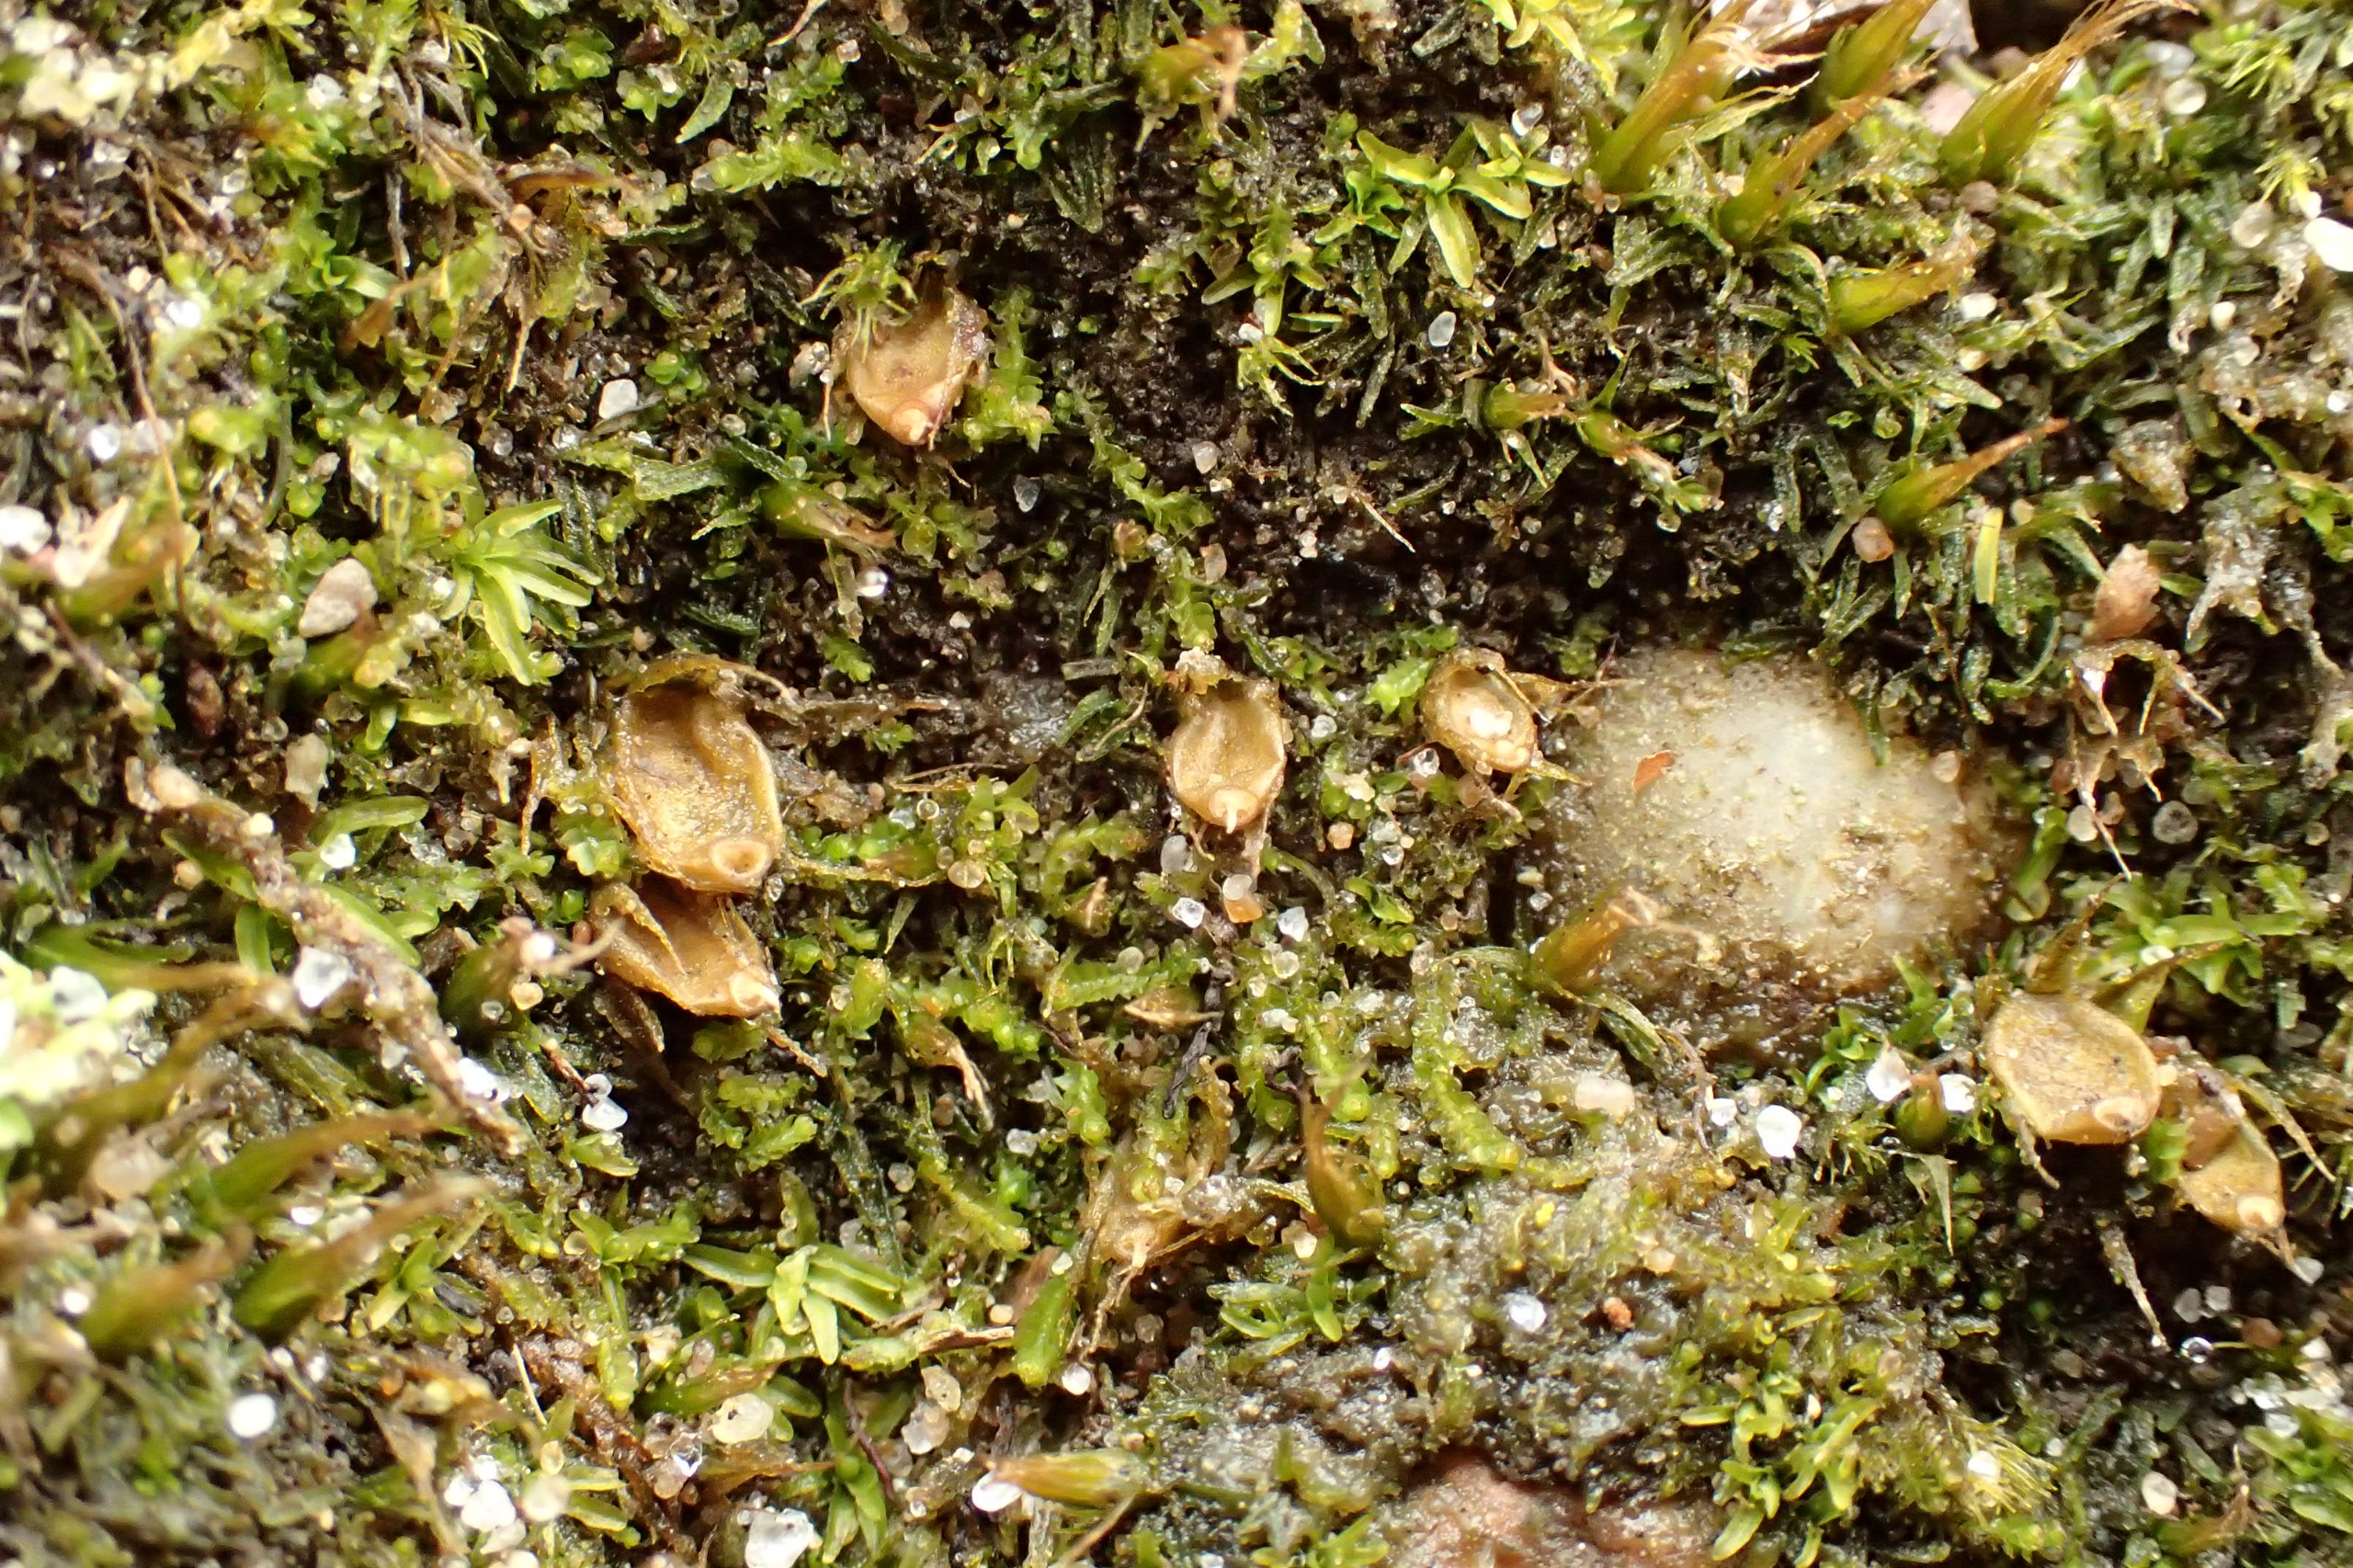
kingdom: Plantae
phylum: Bryophyta
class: Bryopsida
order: Diphysciales
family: Diphysciaceae
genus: Diphyscium
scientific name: Diphyscium foliosum
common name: Stilkløs sækkapsel
